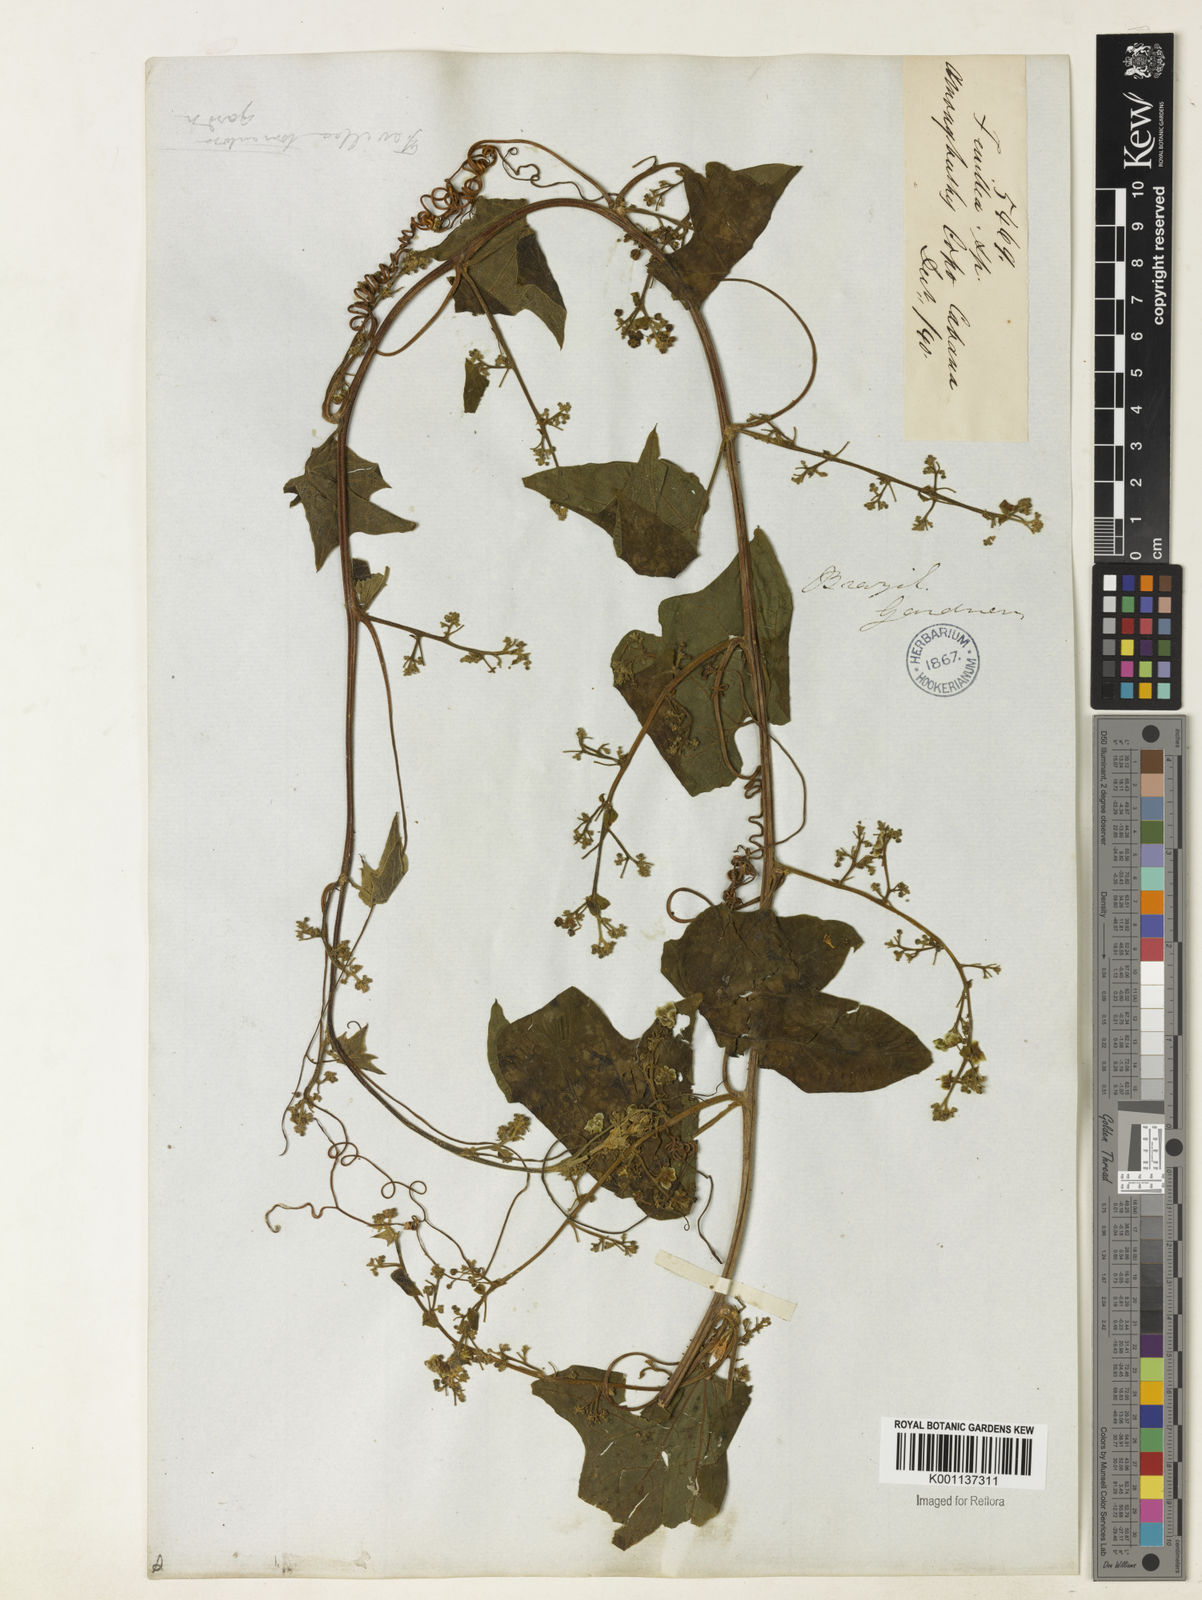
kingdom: Plantae
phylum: Tracheophyta
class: Magnoliopsida
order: Cucurbitales
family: Cucurbitaceae
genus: Fevillea
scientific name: Fevillea trilobata
